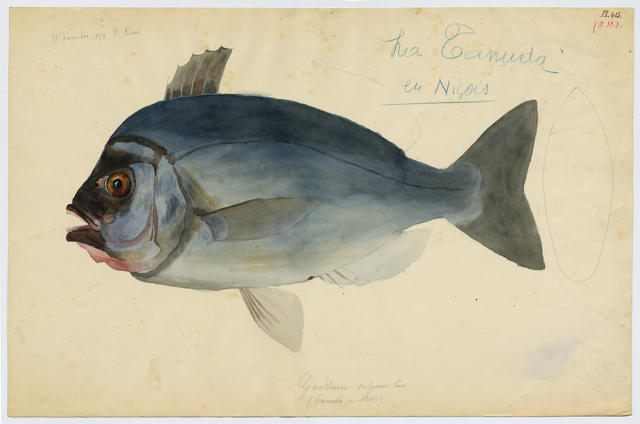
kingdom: Animalia
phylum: Chordata
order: Perciformes
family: Sparidae
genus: Spondyliosoma
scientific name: Spondyliosoma cantharus
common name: Black seabream
